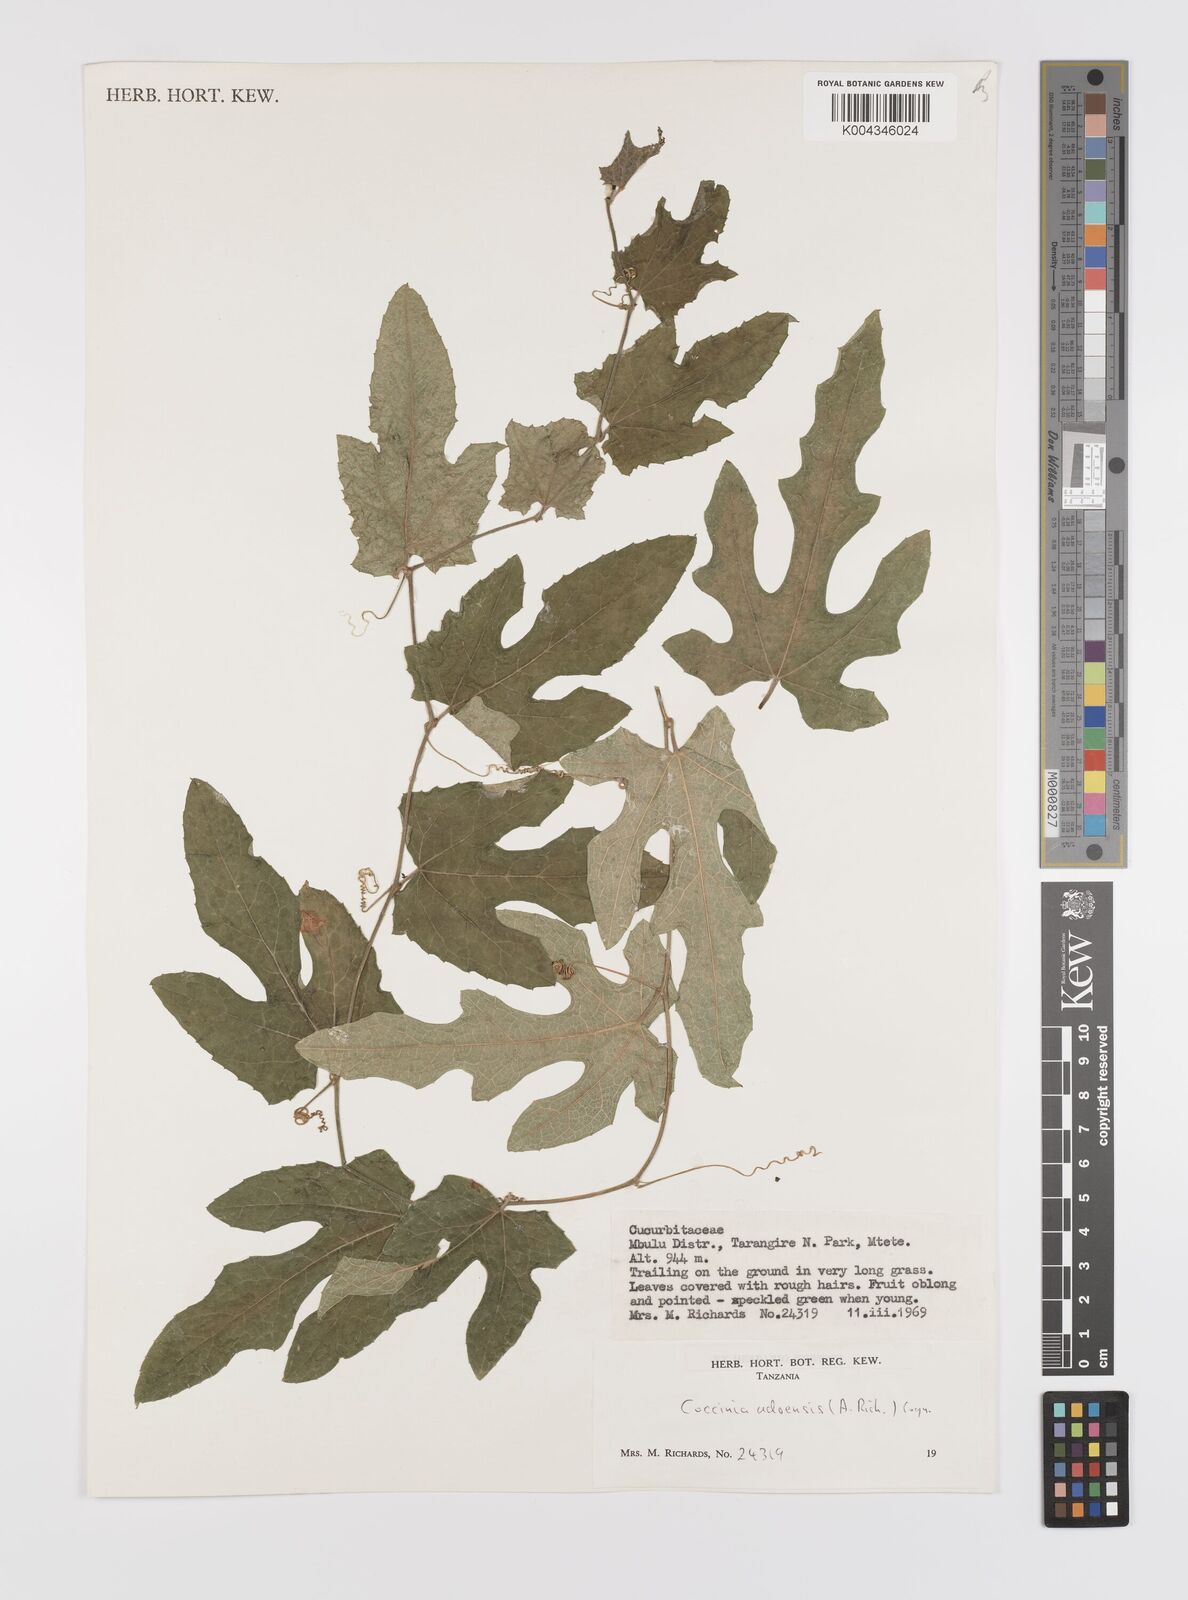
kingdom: Plantae
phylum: Tracheophyta
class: Magnoliopsida
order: Cucurbitales
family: Cucurbitaceae
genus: Coccinia
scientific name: Coccinia adoensis
